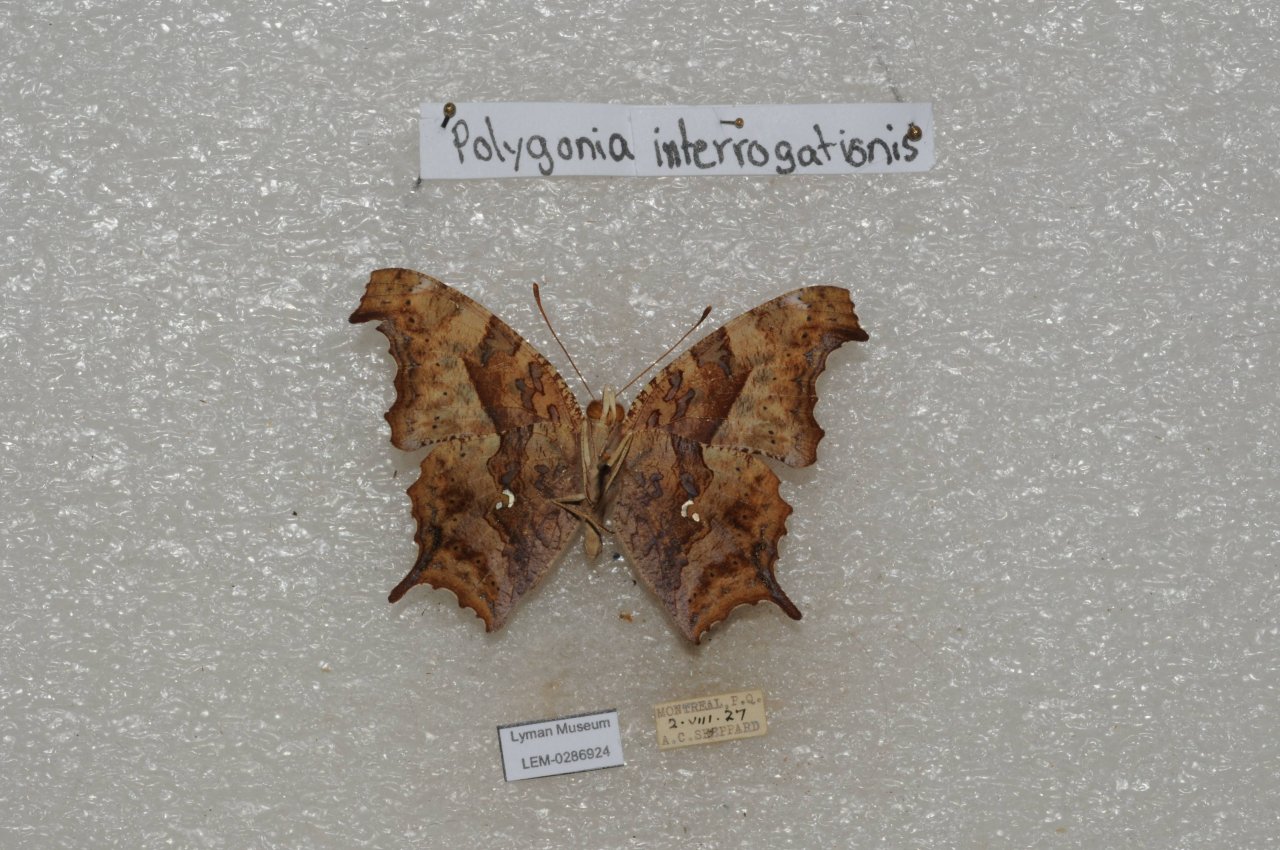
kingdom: Animalia
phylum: Arthropoda
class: Insecta
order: Lepidoptera
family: Nymphalidae
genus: Polygonia
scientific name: Polygonia interrogationis
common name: Question Mark
